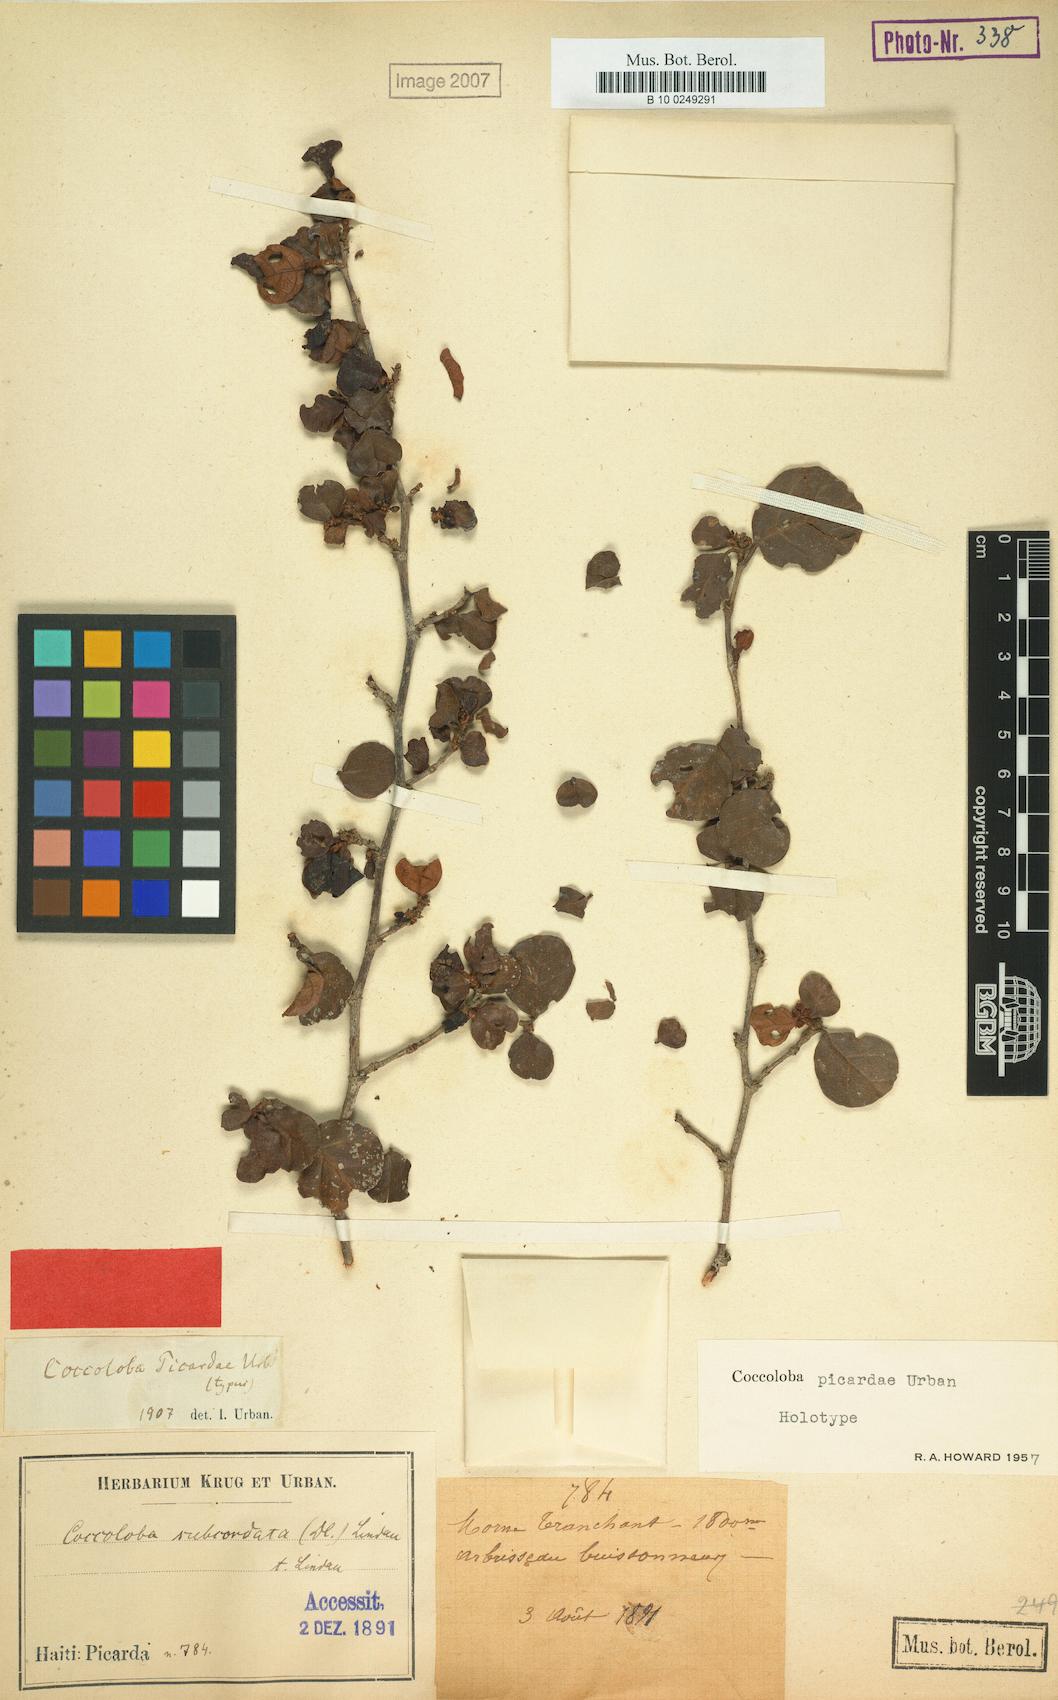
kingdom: Plantae
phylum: Tracheophyta
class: Magnoliopsida
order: Caryophyllales
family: Polygonaceae
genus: Coccoloba
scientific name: Coccoloba picardae
